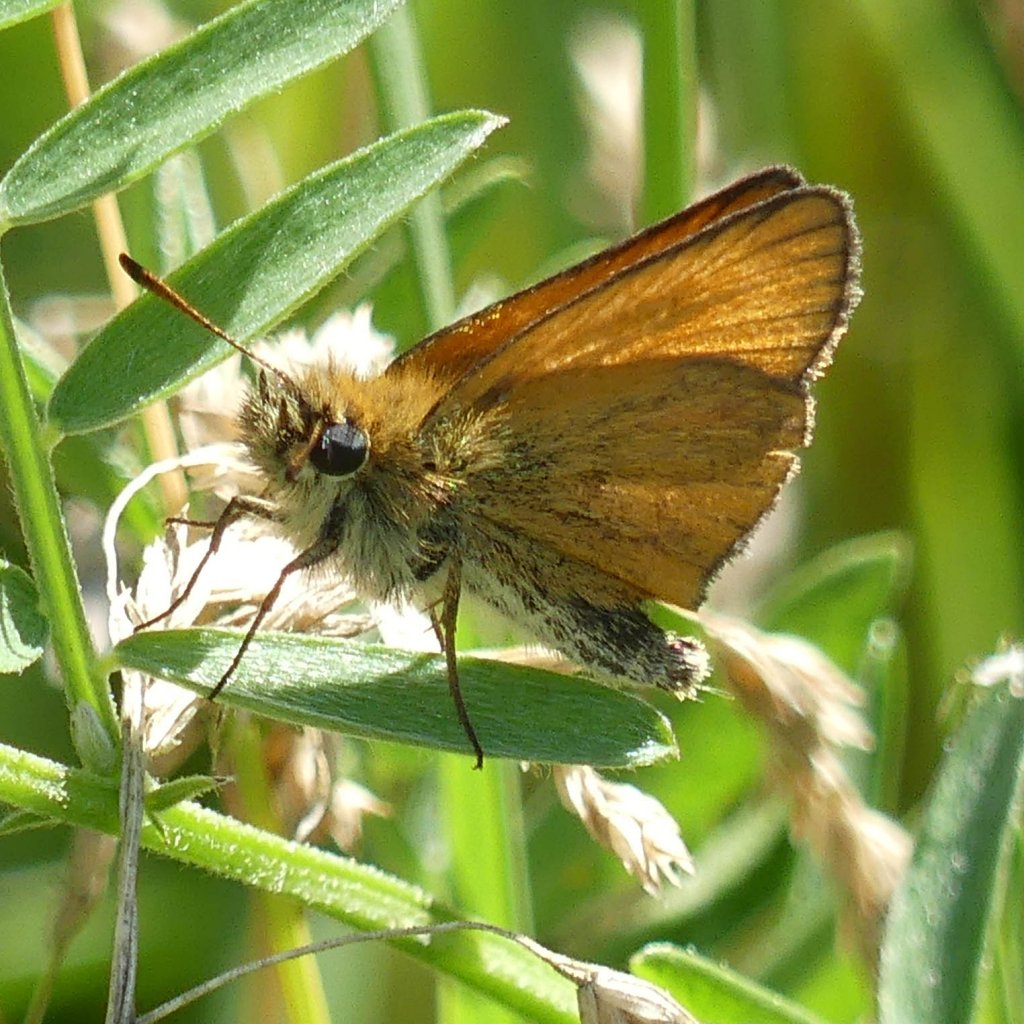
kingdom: Animalia
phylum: Arthropoda
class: Insecta
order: Lepidoptera
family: Hesperiidae
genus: Thymelicus
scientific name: Thymelicus lineola
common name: European Skipper
